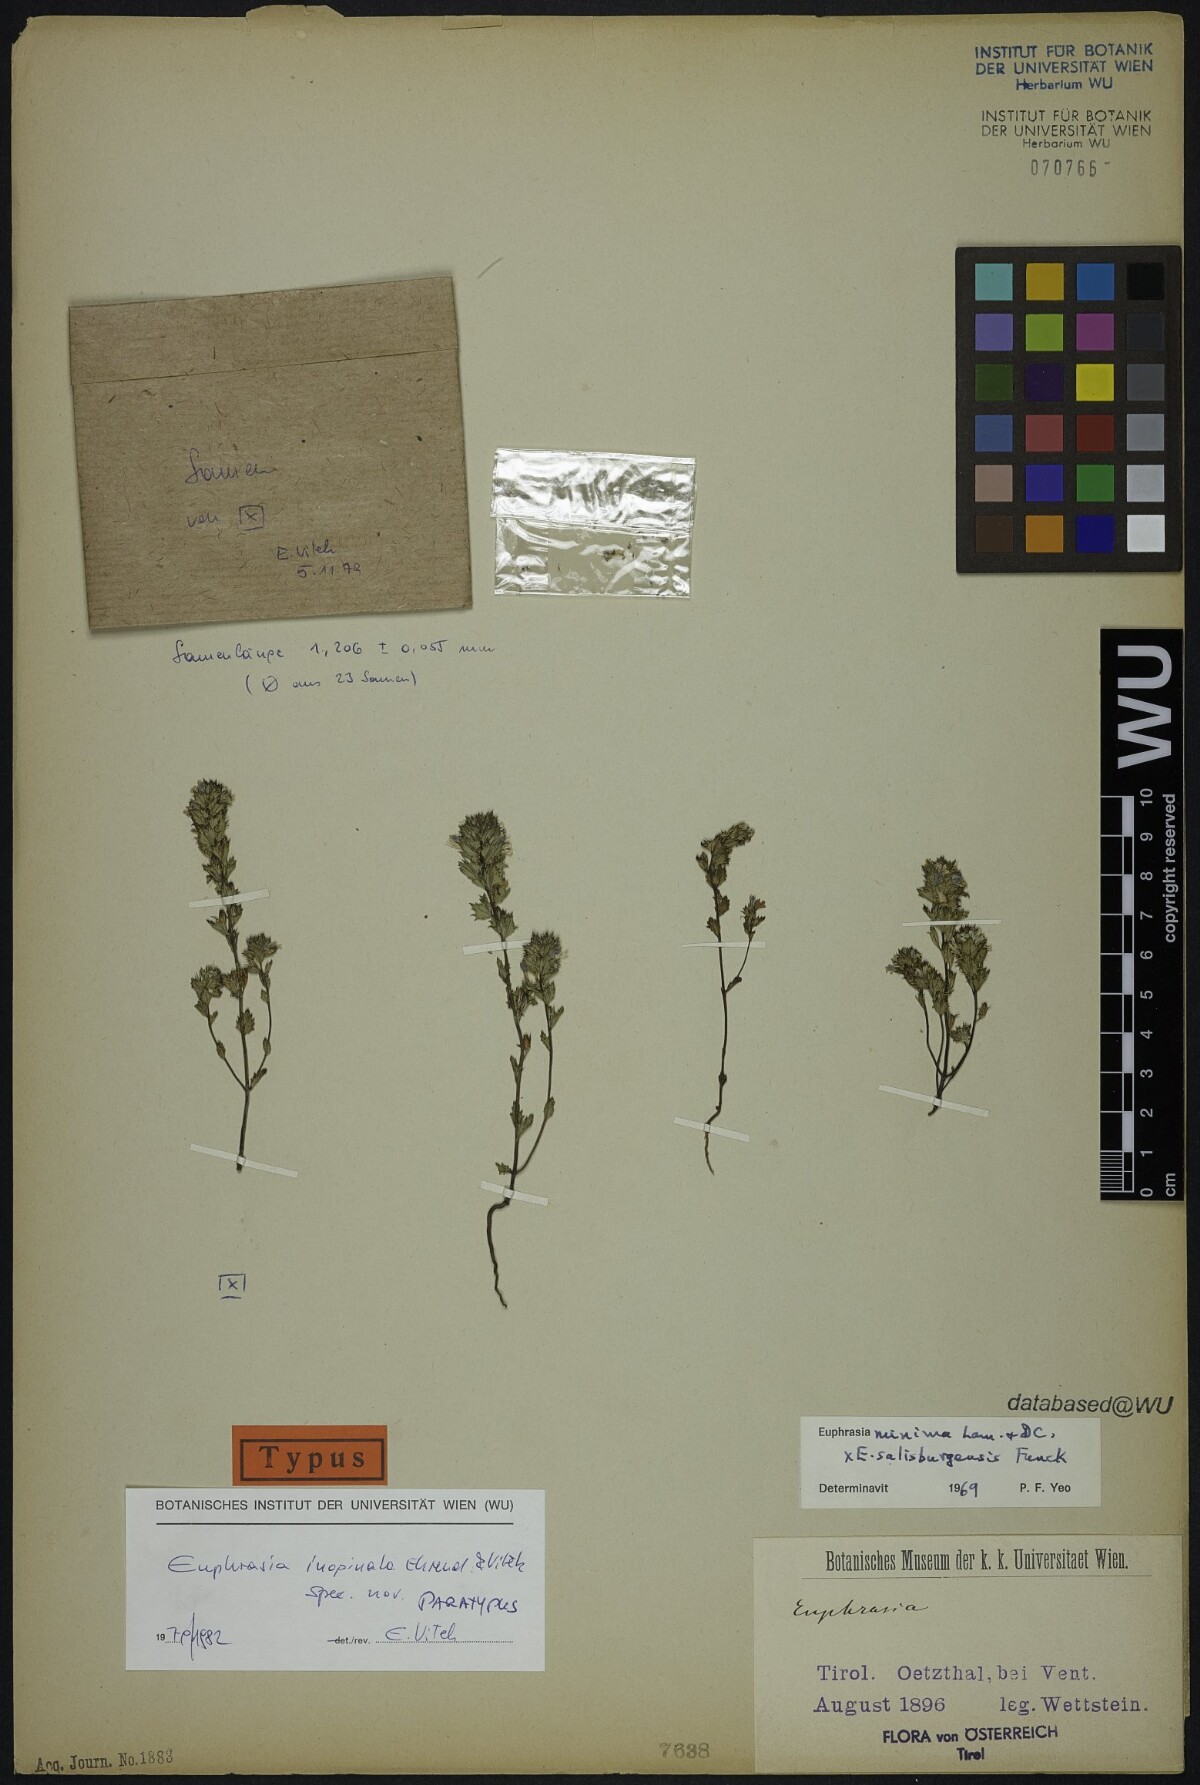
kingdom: Plantae
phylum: Tracheophyta
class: Magnoliopsida
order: Lamiales
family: Orobanchaceae
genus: Euphrasia
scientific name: Euphrasia inopinata
